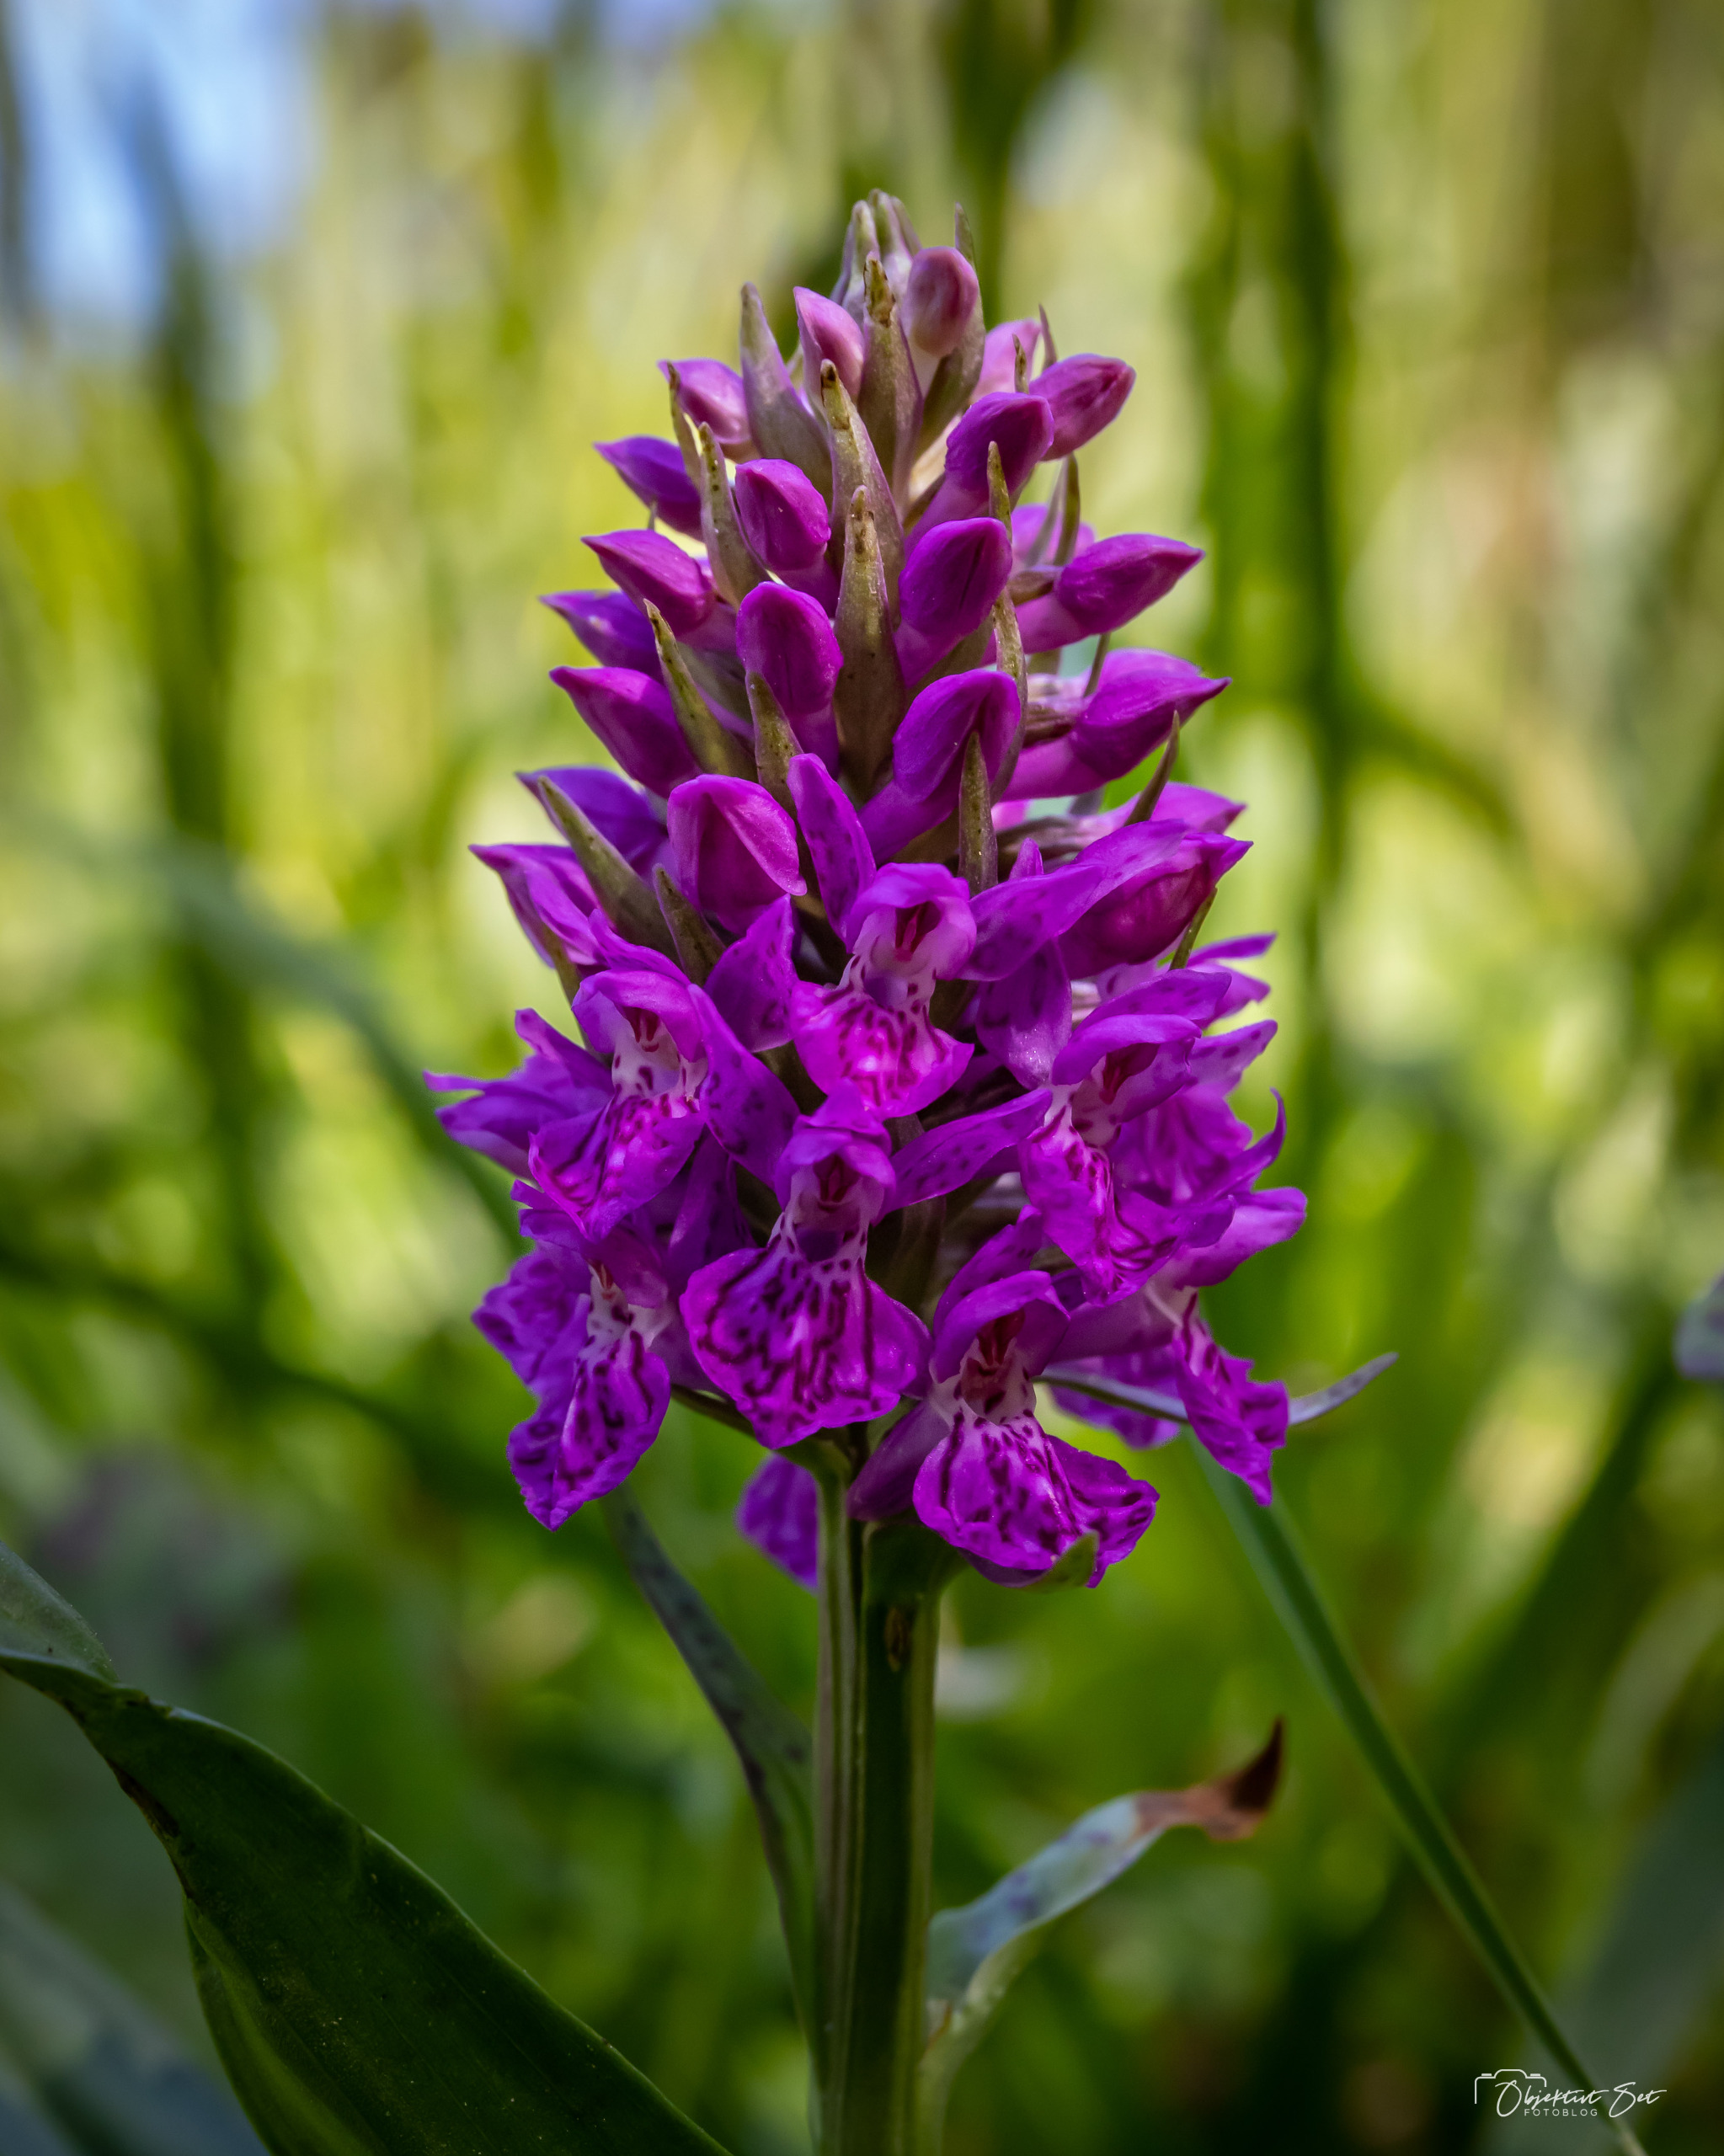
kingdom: Plantae
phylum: Tracheophyta
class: Liliopsida
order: Asparagales
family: Orchidaceae
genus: Dactylorhiza
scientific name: Dactylorhiza majalis
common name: Purpur-gøgeurt
